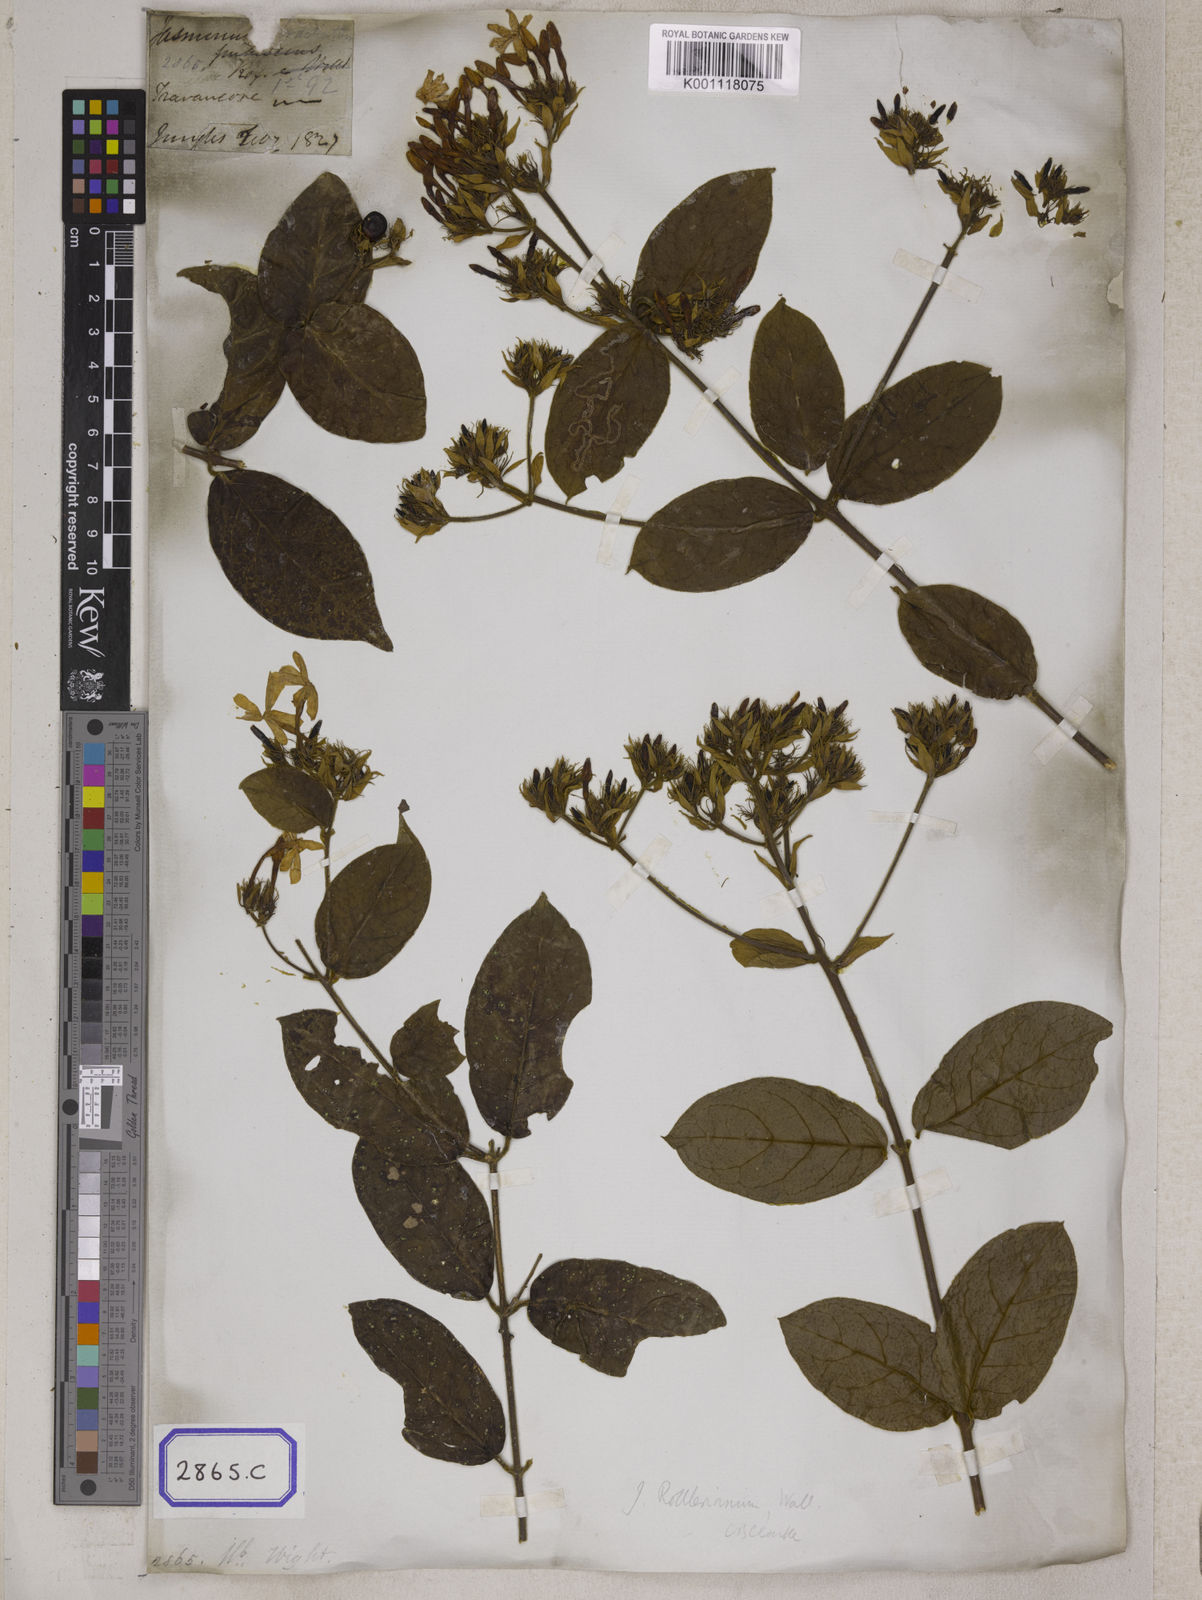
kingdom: Plantae
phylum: Tracheophyta
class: Magnoliopsida
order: Lamiales
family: Oleaceae
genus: Jasminum
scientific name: Jasminum
